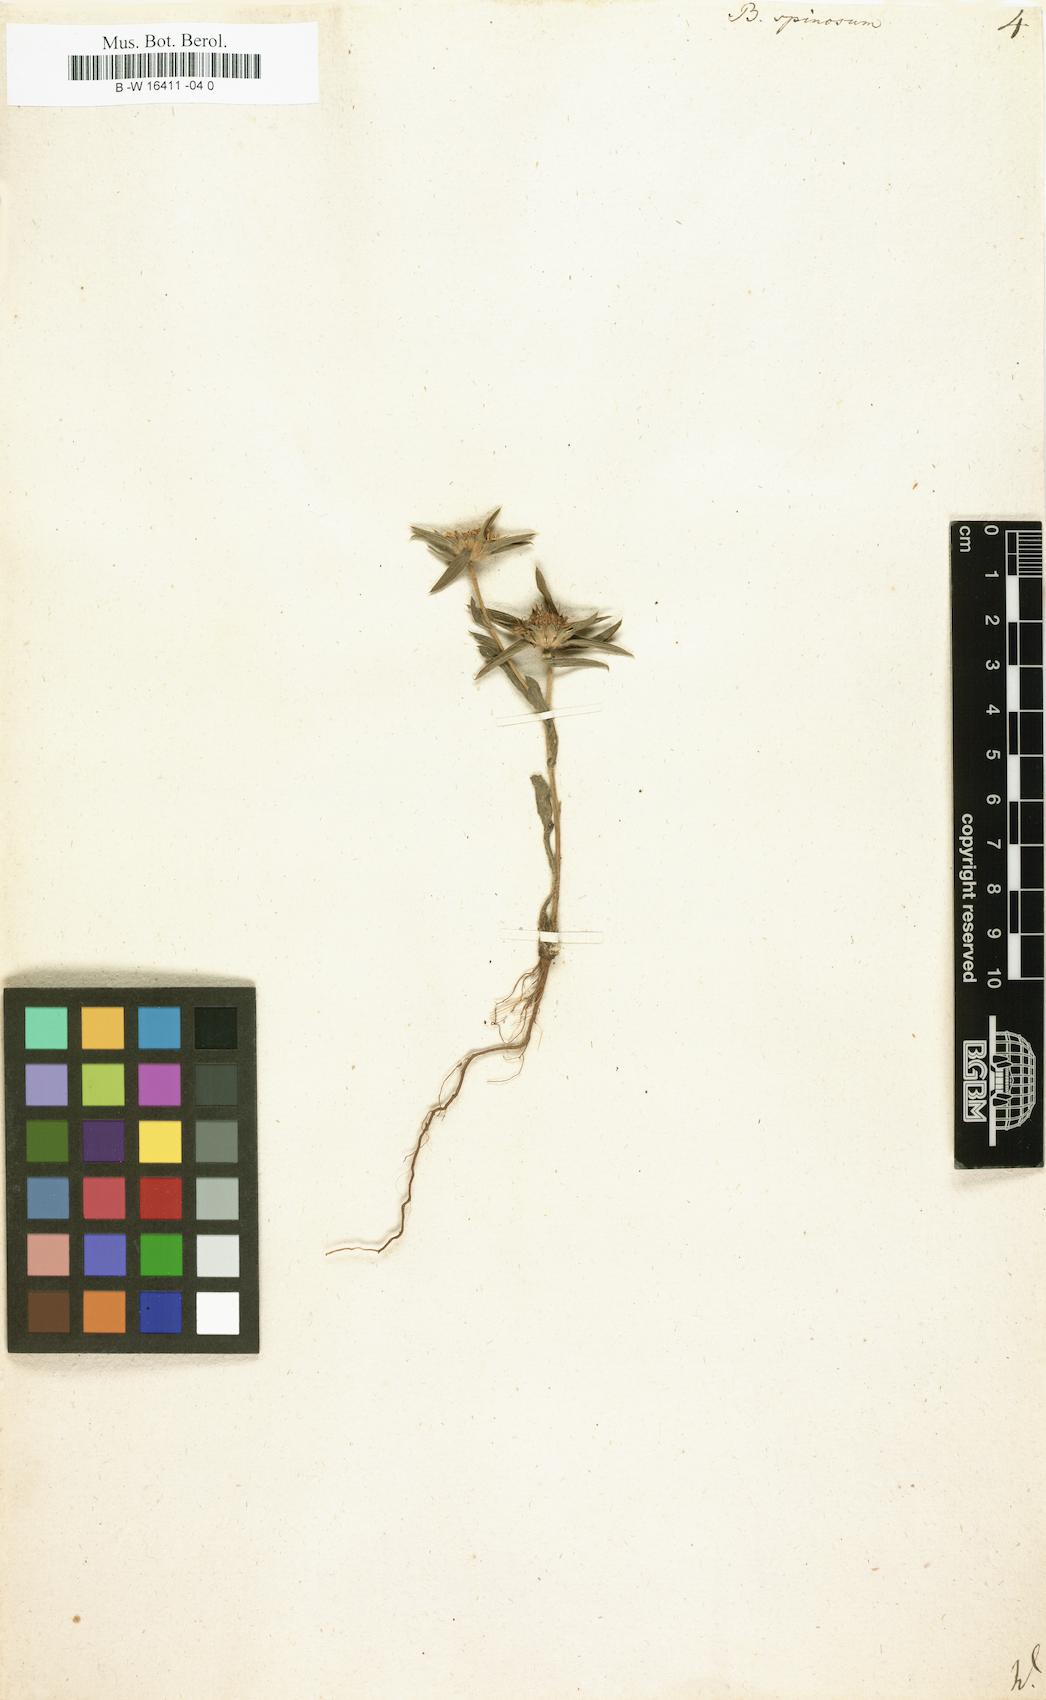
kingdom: Plantae
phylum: Tracheophyta
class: Magnoliopsida
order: Asterales
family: Asteraceae
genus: Pallenis
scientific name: Pallenis spinosa
